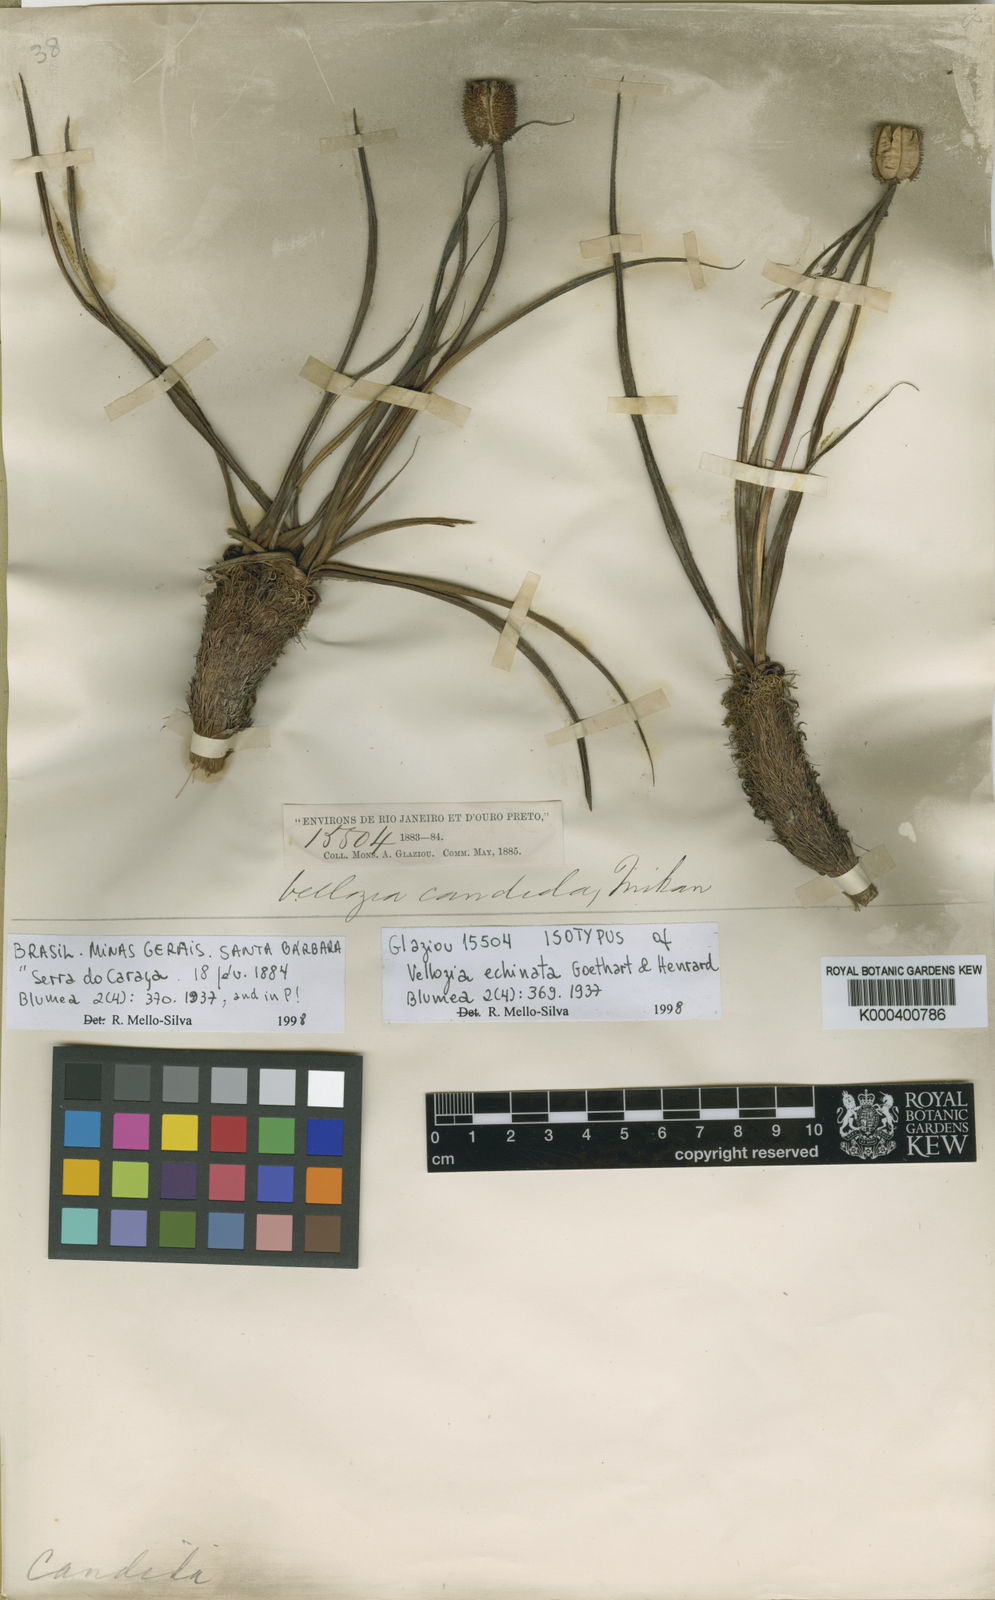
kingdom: Plantae
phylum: Tracheophyta
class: Liliopsida
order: Pandanales
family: Velloziaceae
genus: Vellozia
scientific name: Vellozia echinata
